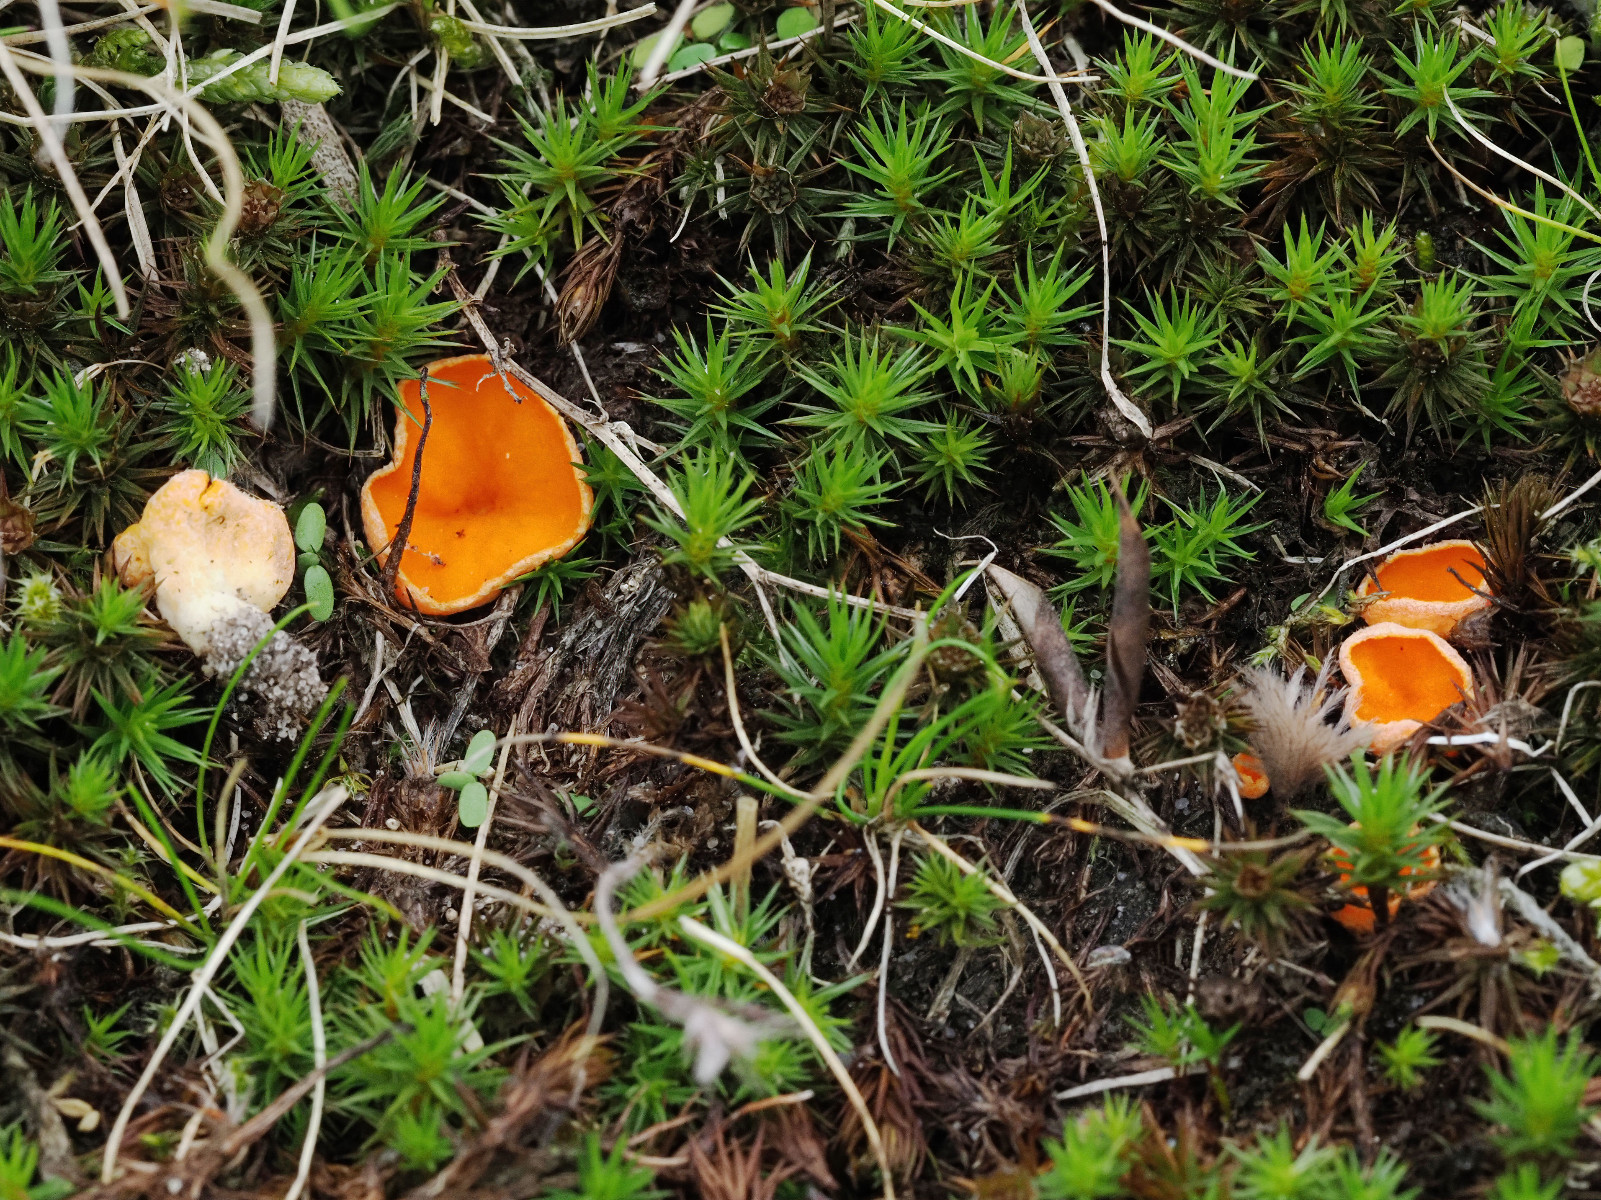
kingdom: Fungi
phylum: Ascomycota
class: Pezizomycetes
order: Pezizales
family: Pyronemataceae
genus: Neottiella
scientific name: Neottiella
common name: mosbæger
